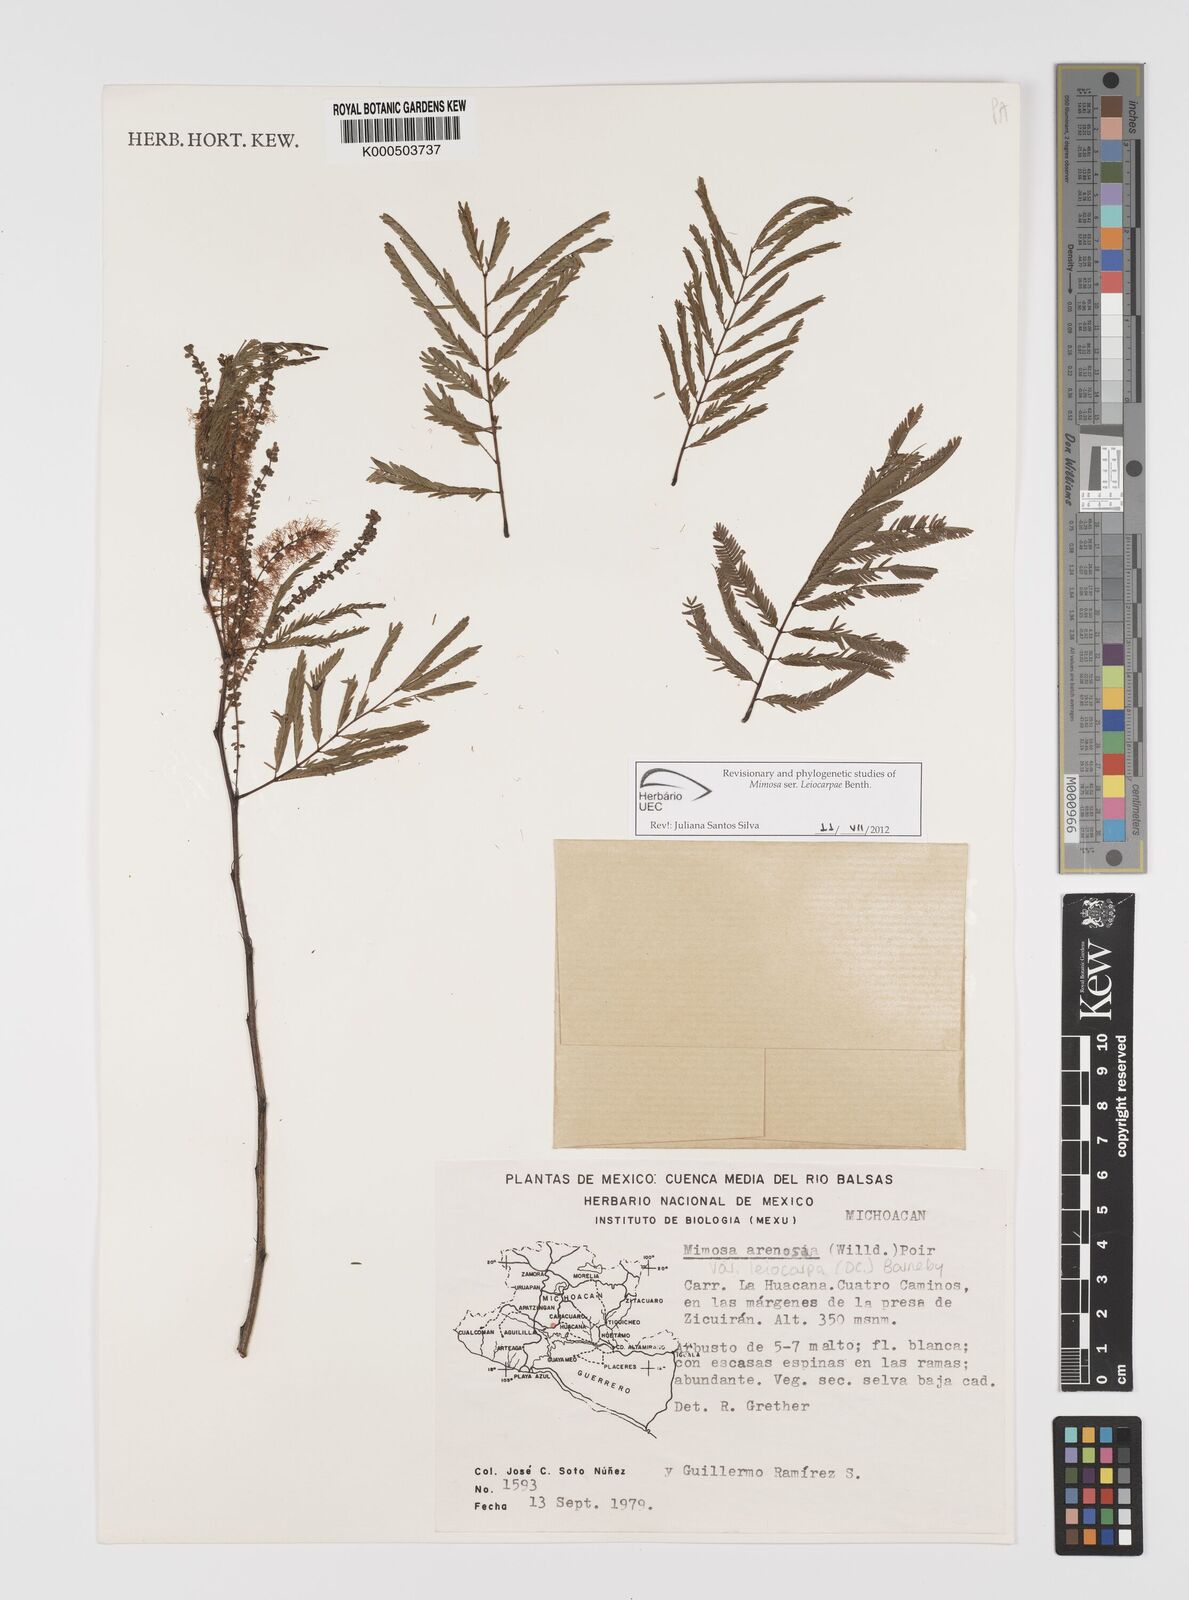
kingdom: Plantae
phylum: Tracheophyta
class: Magnoliopsida
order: Fabales
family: Fabaceae
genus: Mimosa
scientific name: Mimosa arenosa
